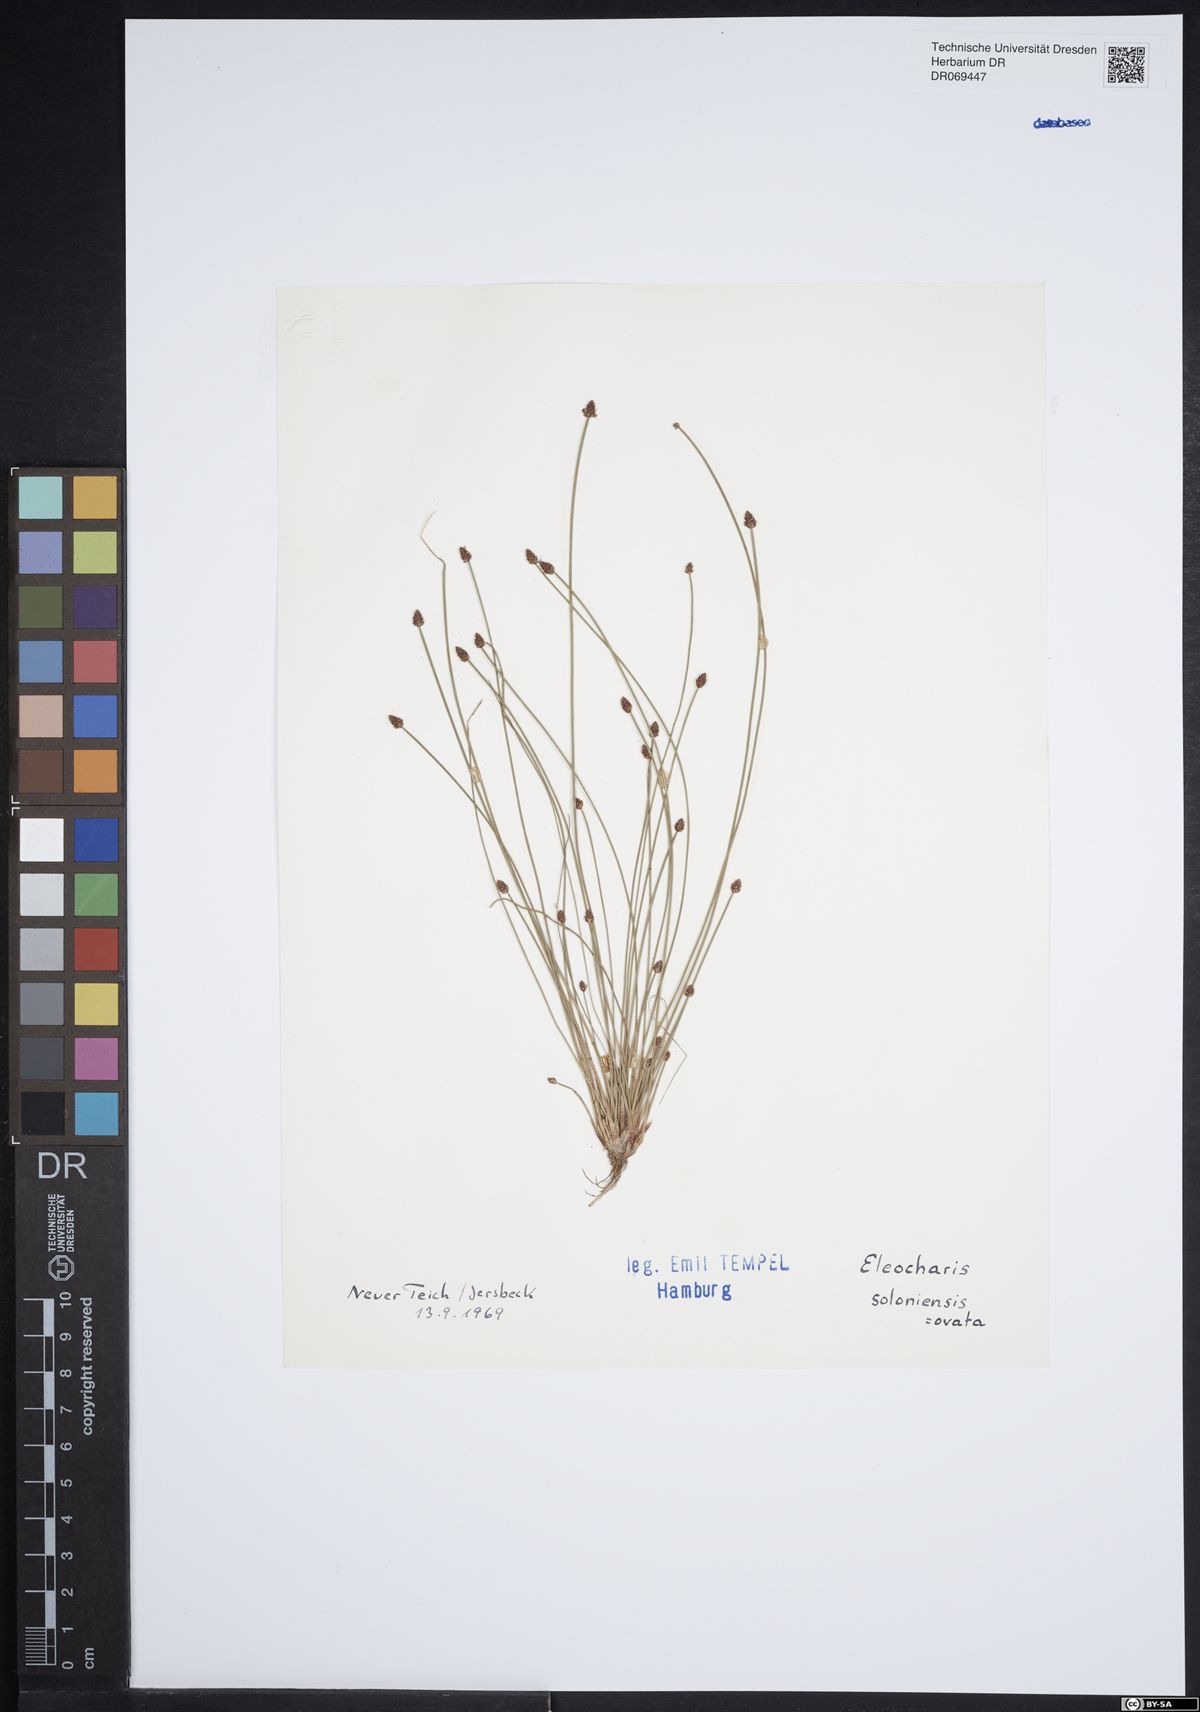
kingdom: Plantae
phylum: Tracheophyta
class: Liliopsida
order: Poales
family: Cyperaceae
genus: Eleocharis
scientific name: Eleocharis ovata
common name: Oval spike-rush
